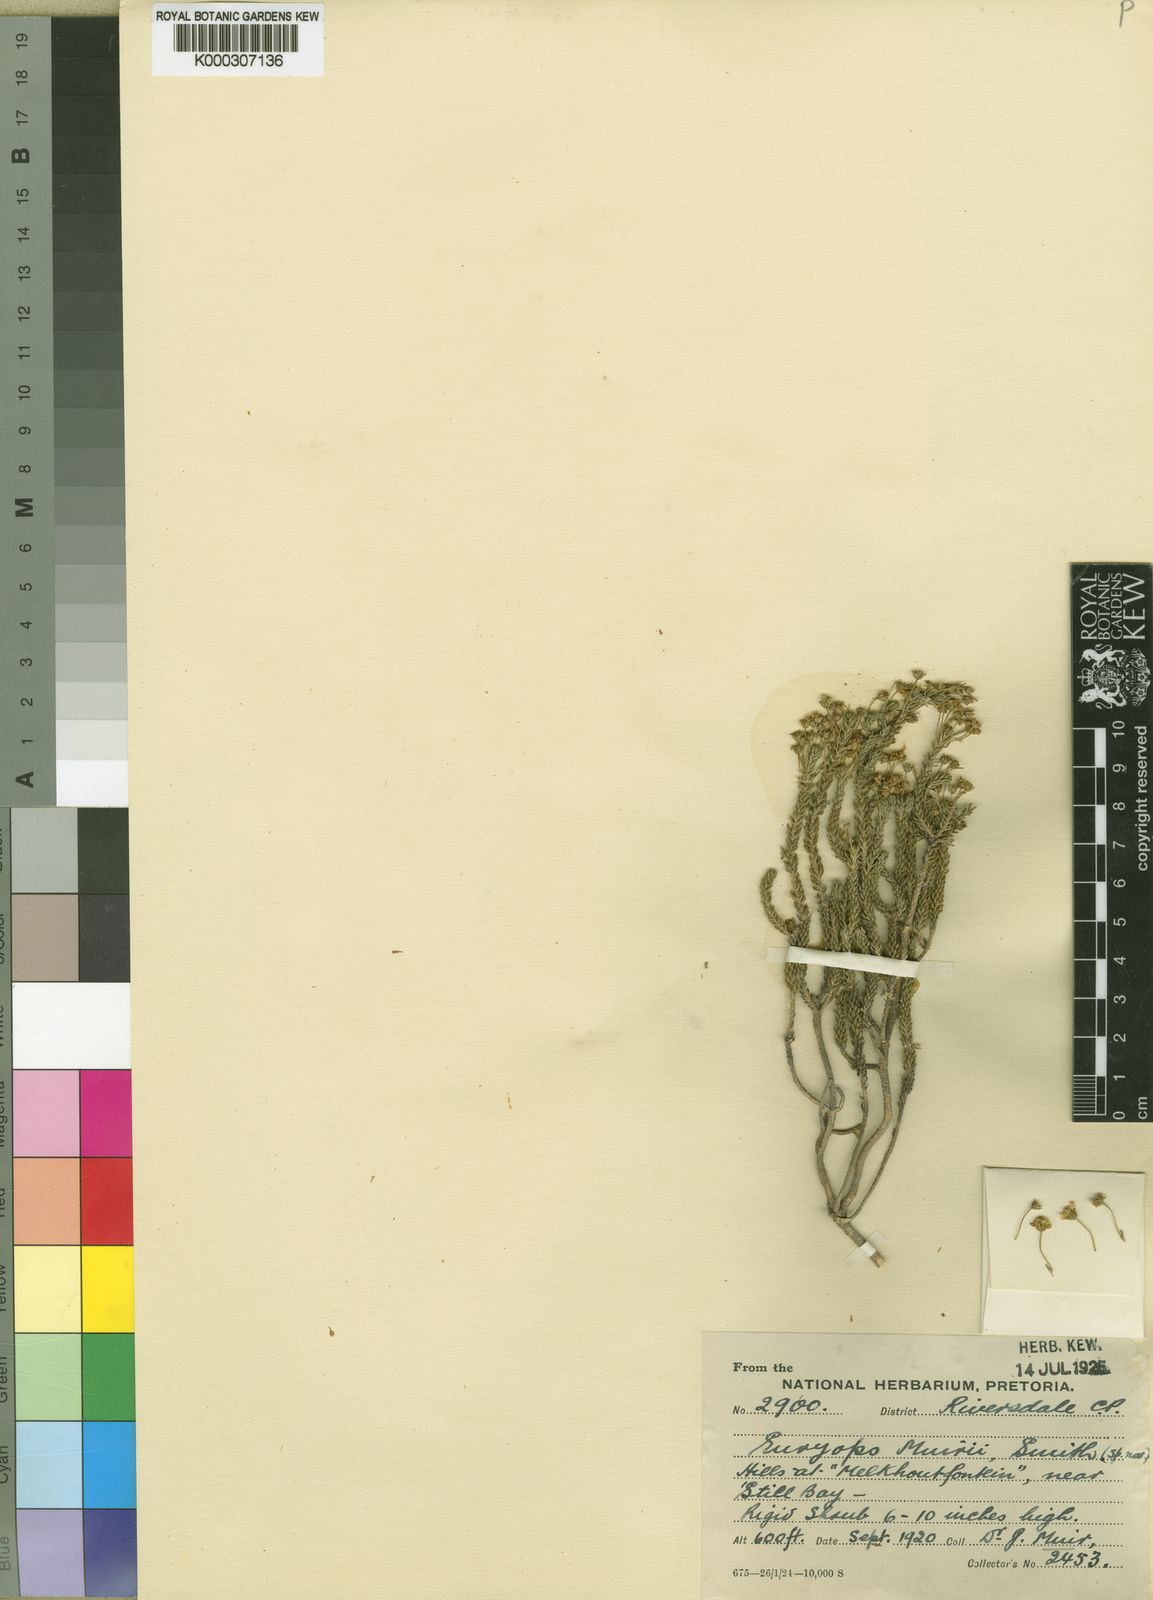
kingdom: Plantae
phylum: Tracheophyta
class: Magnoliopsida
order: Asterales
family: Asteraceae
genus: Euryops
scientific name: Euryops muirii
